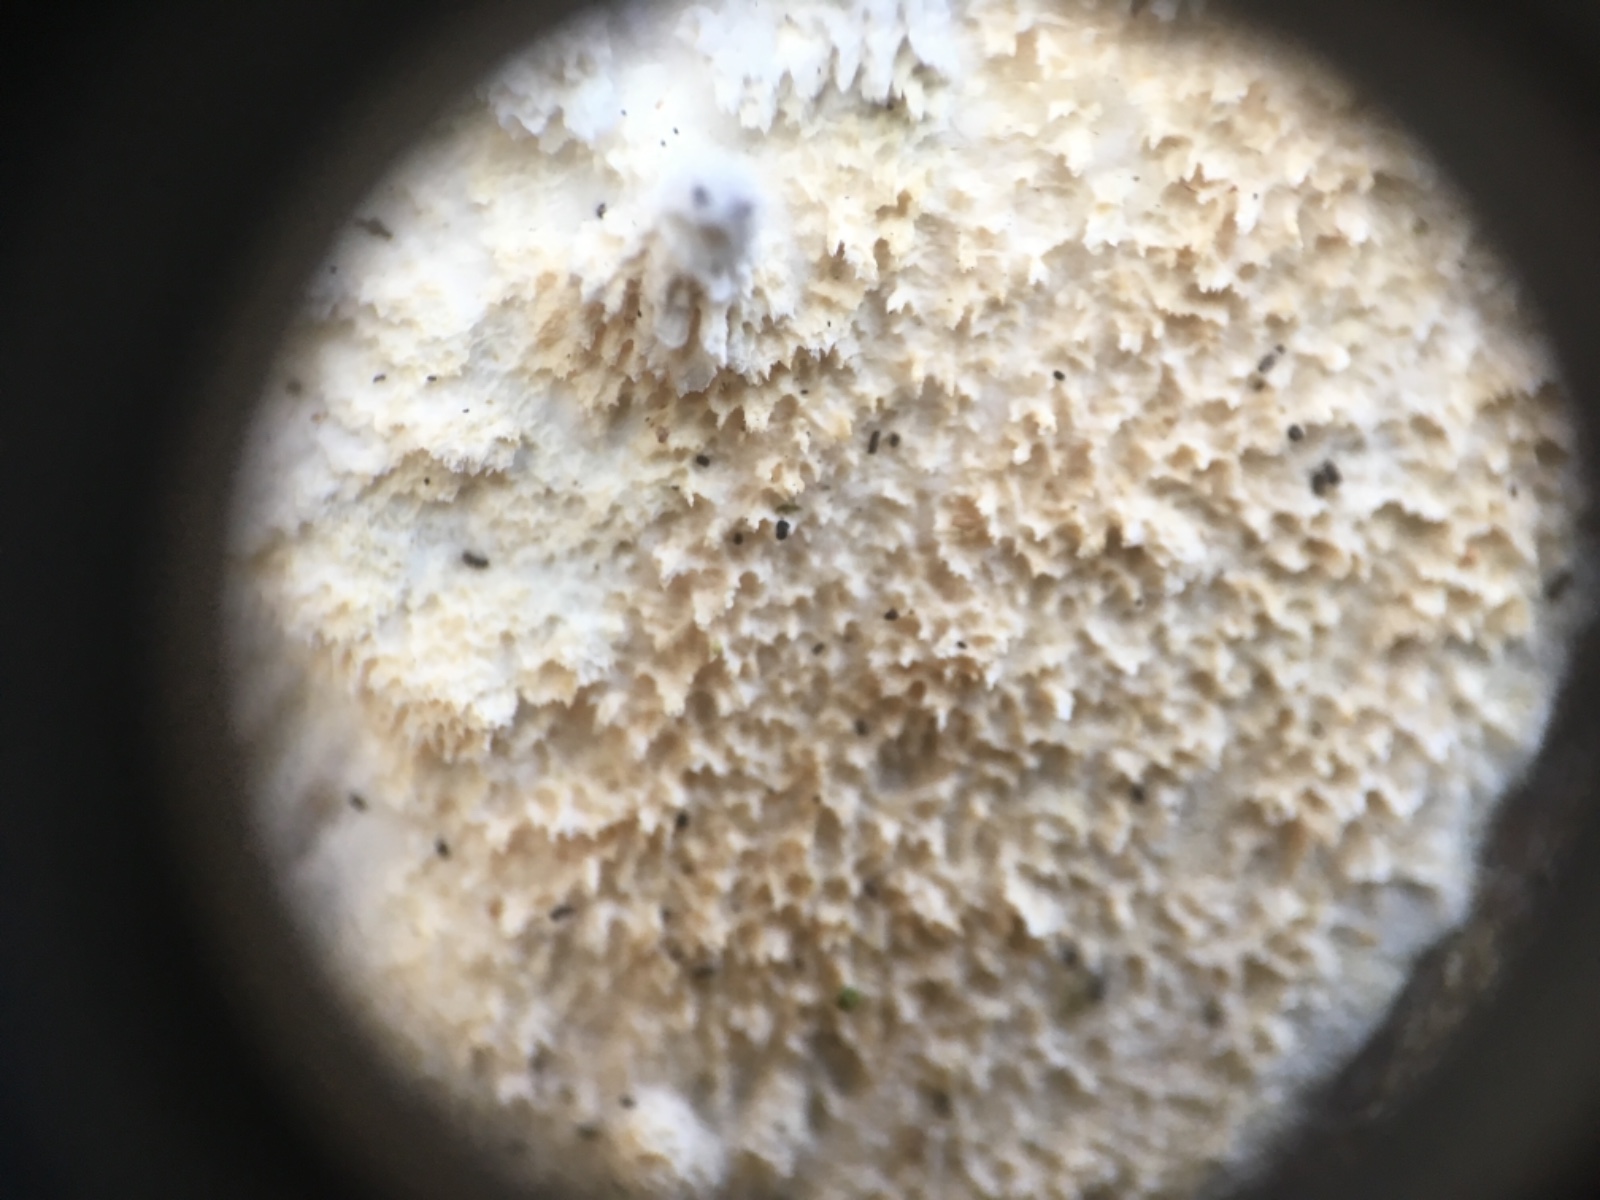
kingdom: Fungi
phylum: Basidiomycota
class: Agaricomycetes
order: Corticiales
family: Corticiaceae
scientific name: Corticiaceae
